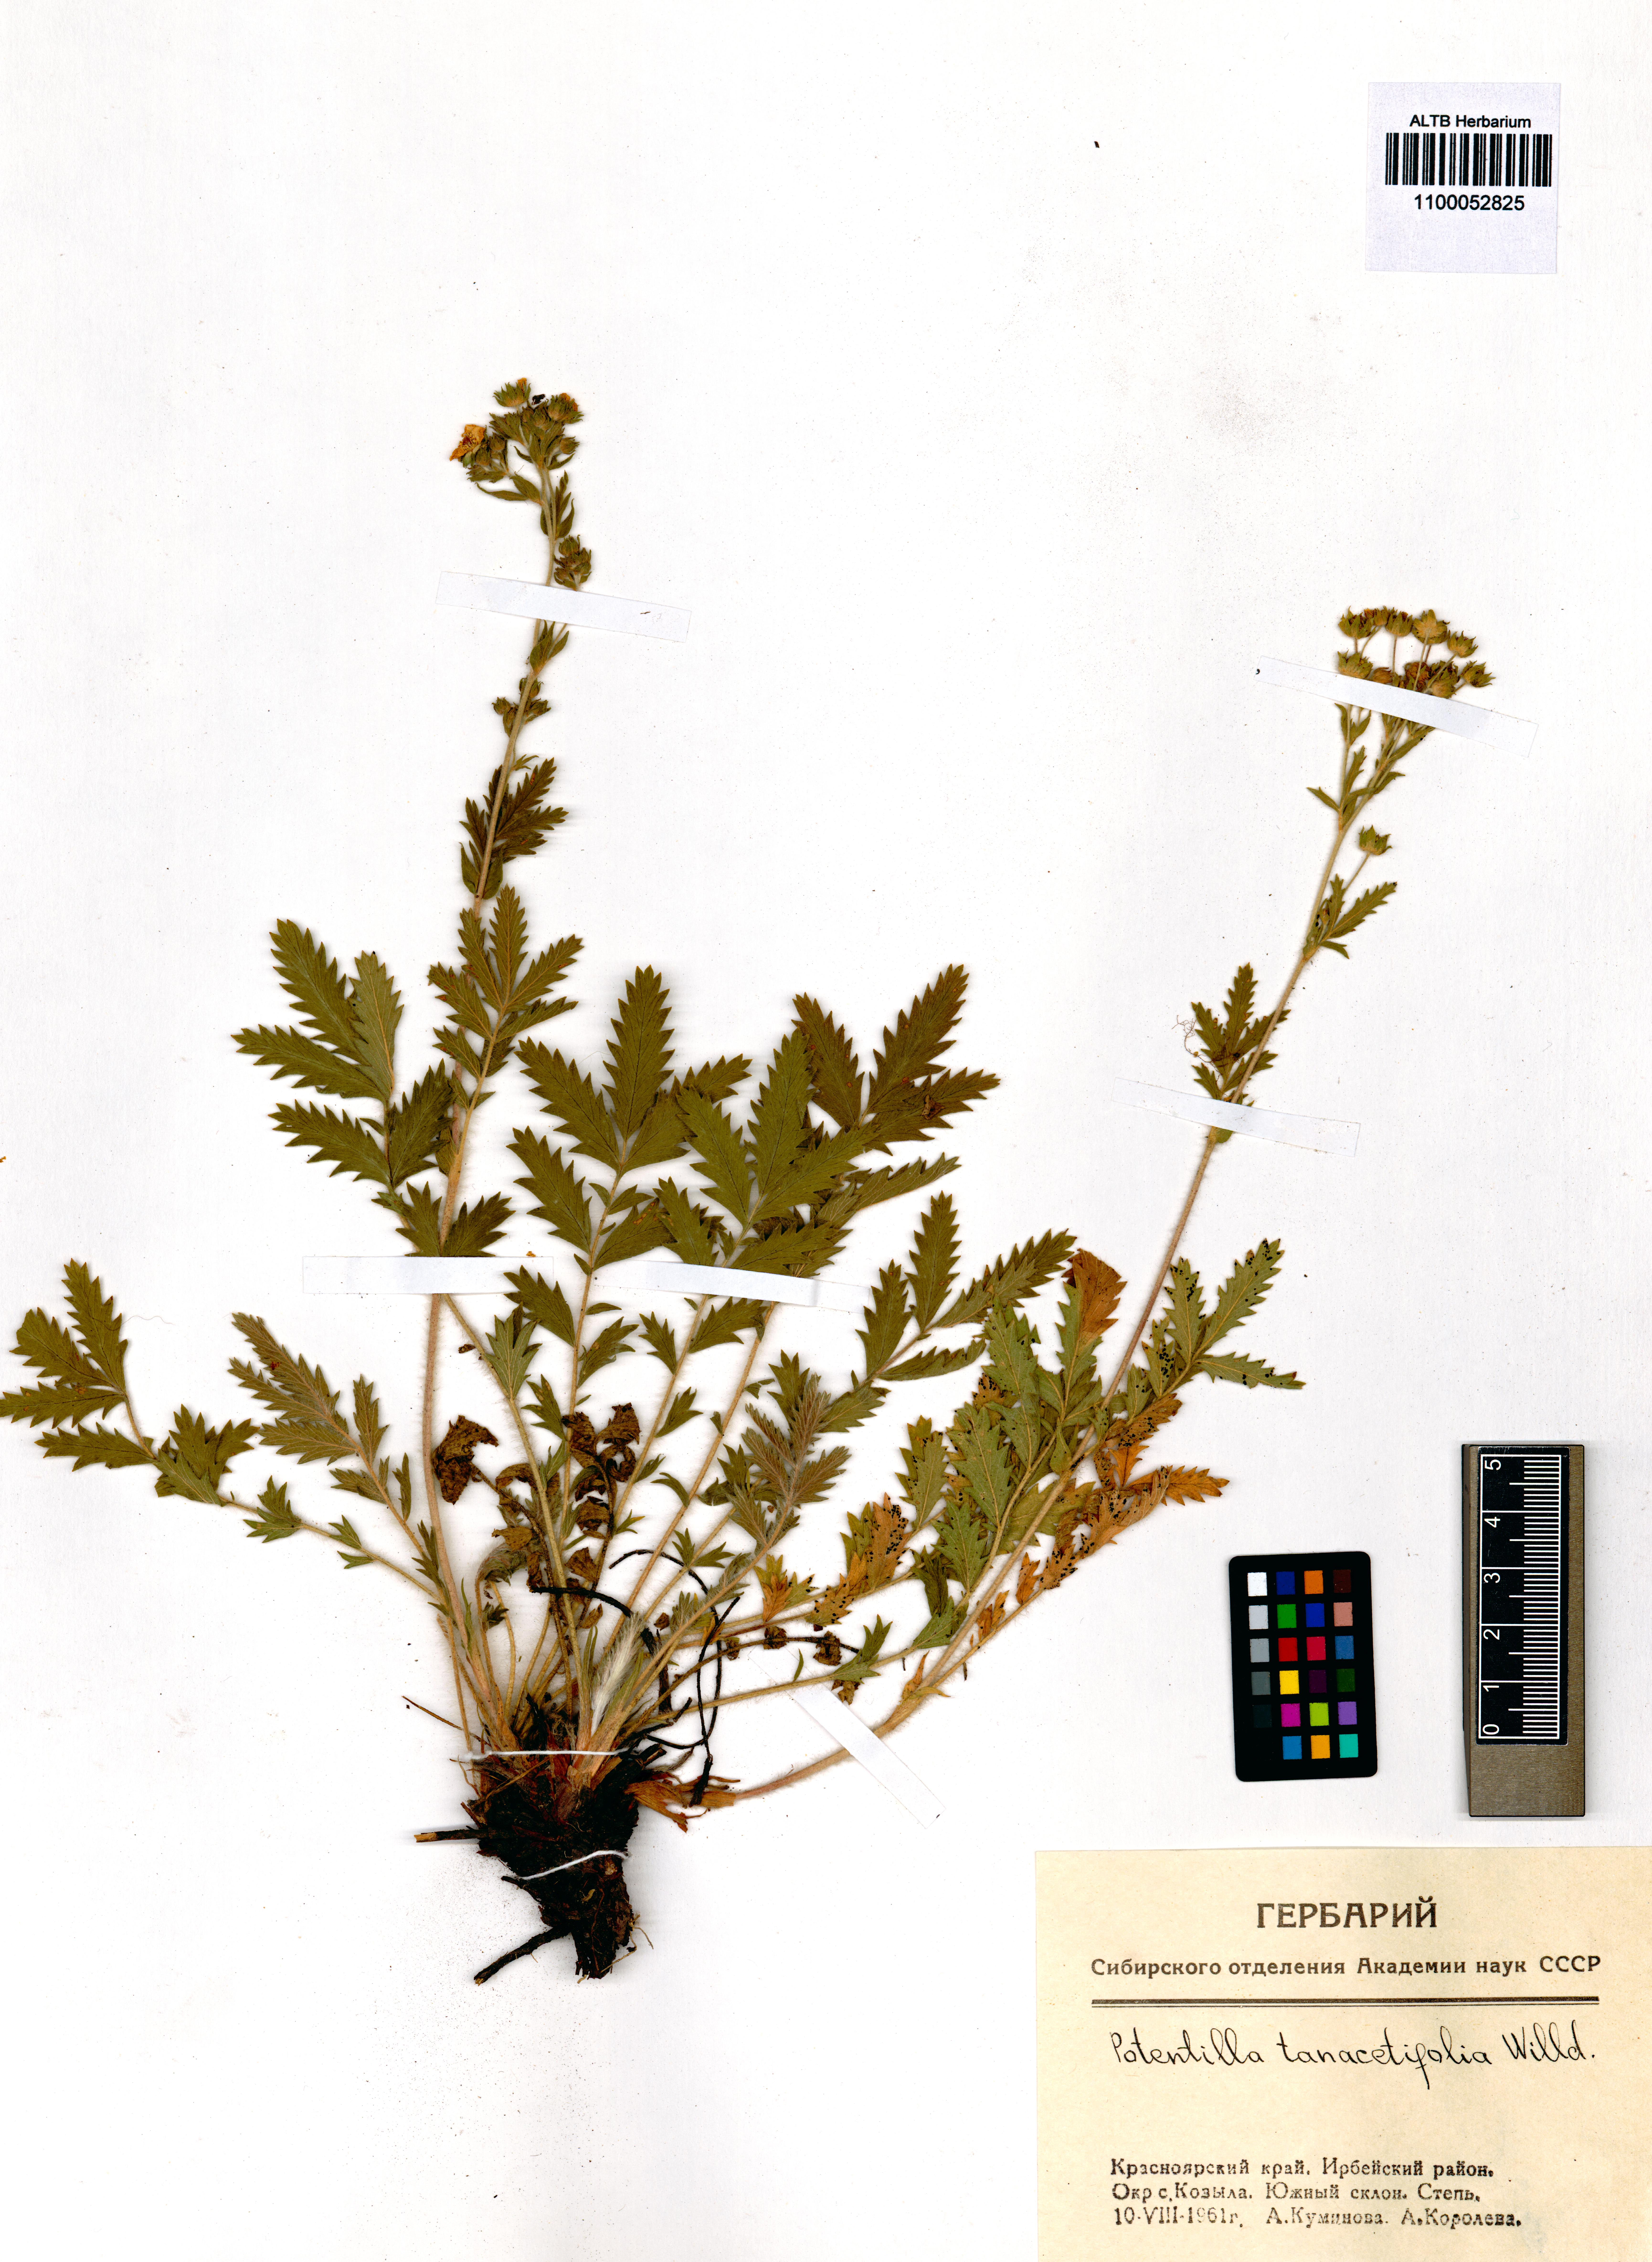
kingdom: Plantae
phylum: Tracheophyta
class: Magnoliopsida
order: Rosales
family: Rosaceae
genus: Potentilla
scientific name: Potentilla tanacetifolia
